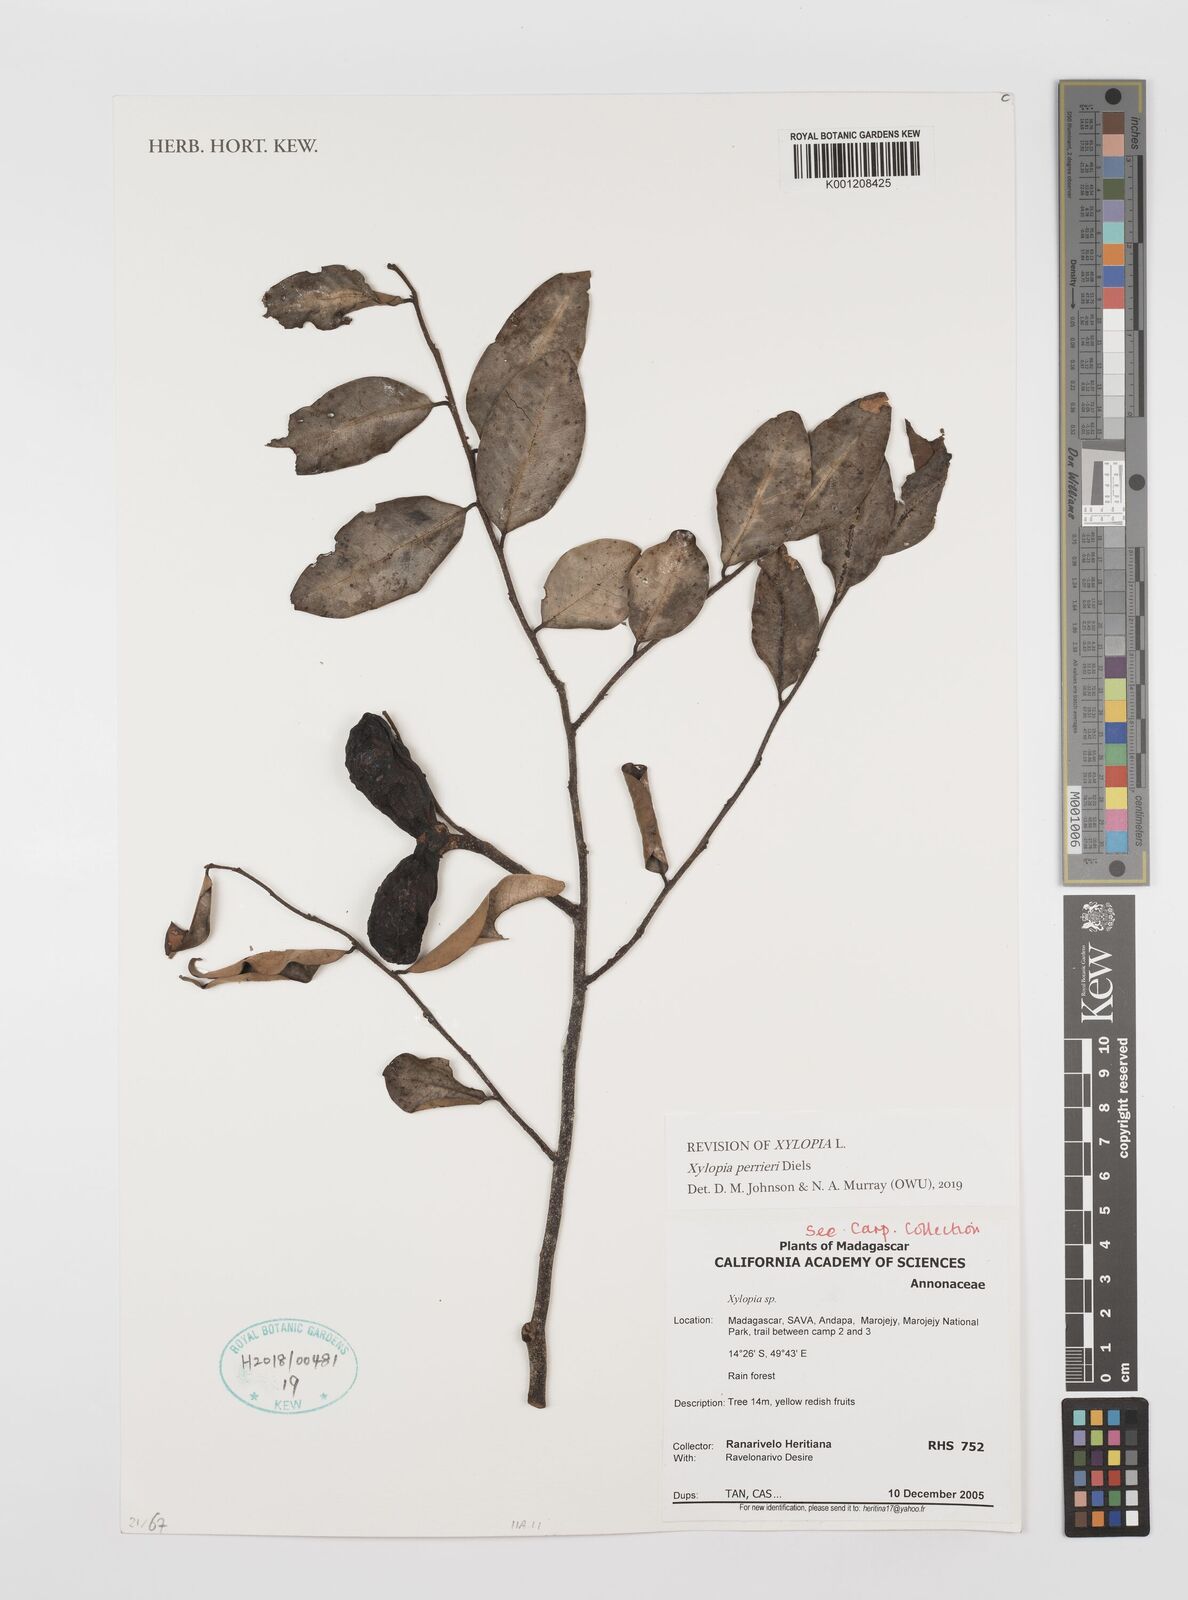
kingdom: Plantae
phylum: Tracheophyta
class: Magnoliopsida
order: Magnoliales
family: Annonaceae
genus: Xylopia
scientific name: Xylopia
